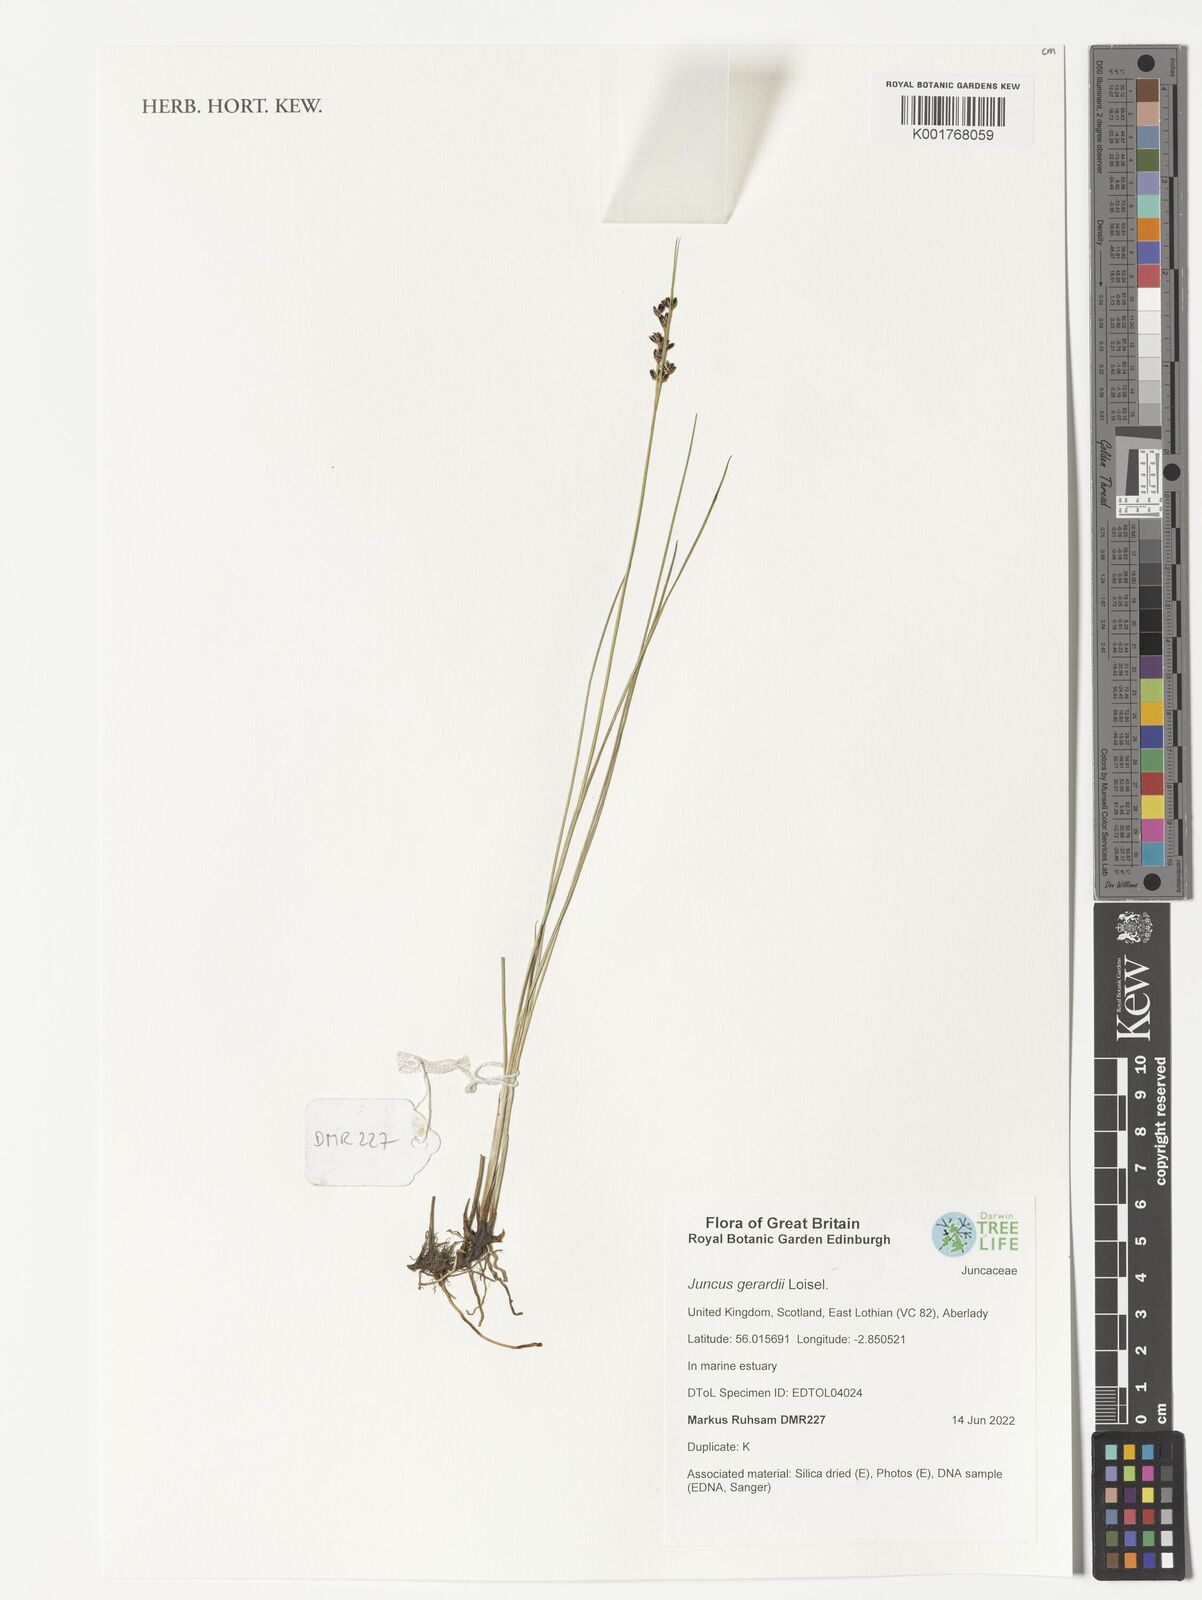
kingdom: Plantae
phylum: Tracheophyta
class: Liliopsida
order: Poales
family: Juncaceae
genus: Juncus
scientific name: Juncus gerardi
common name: Saltmarsh rush
